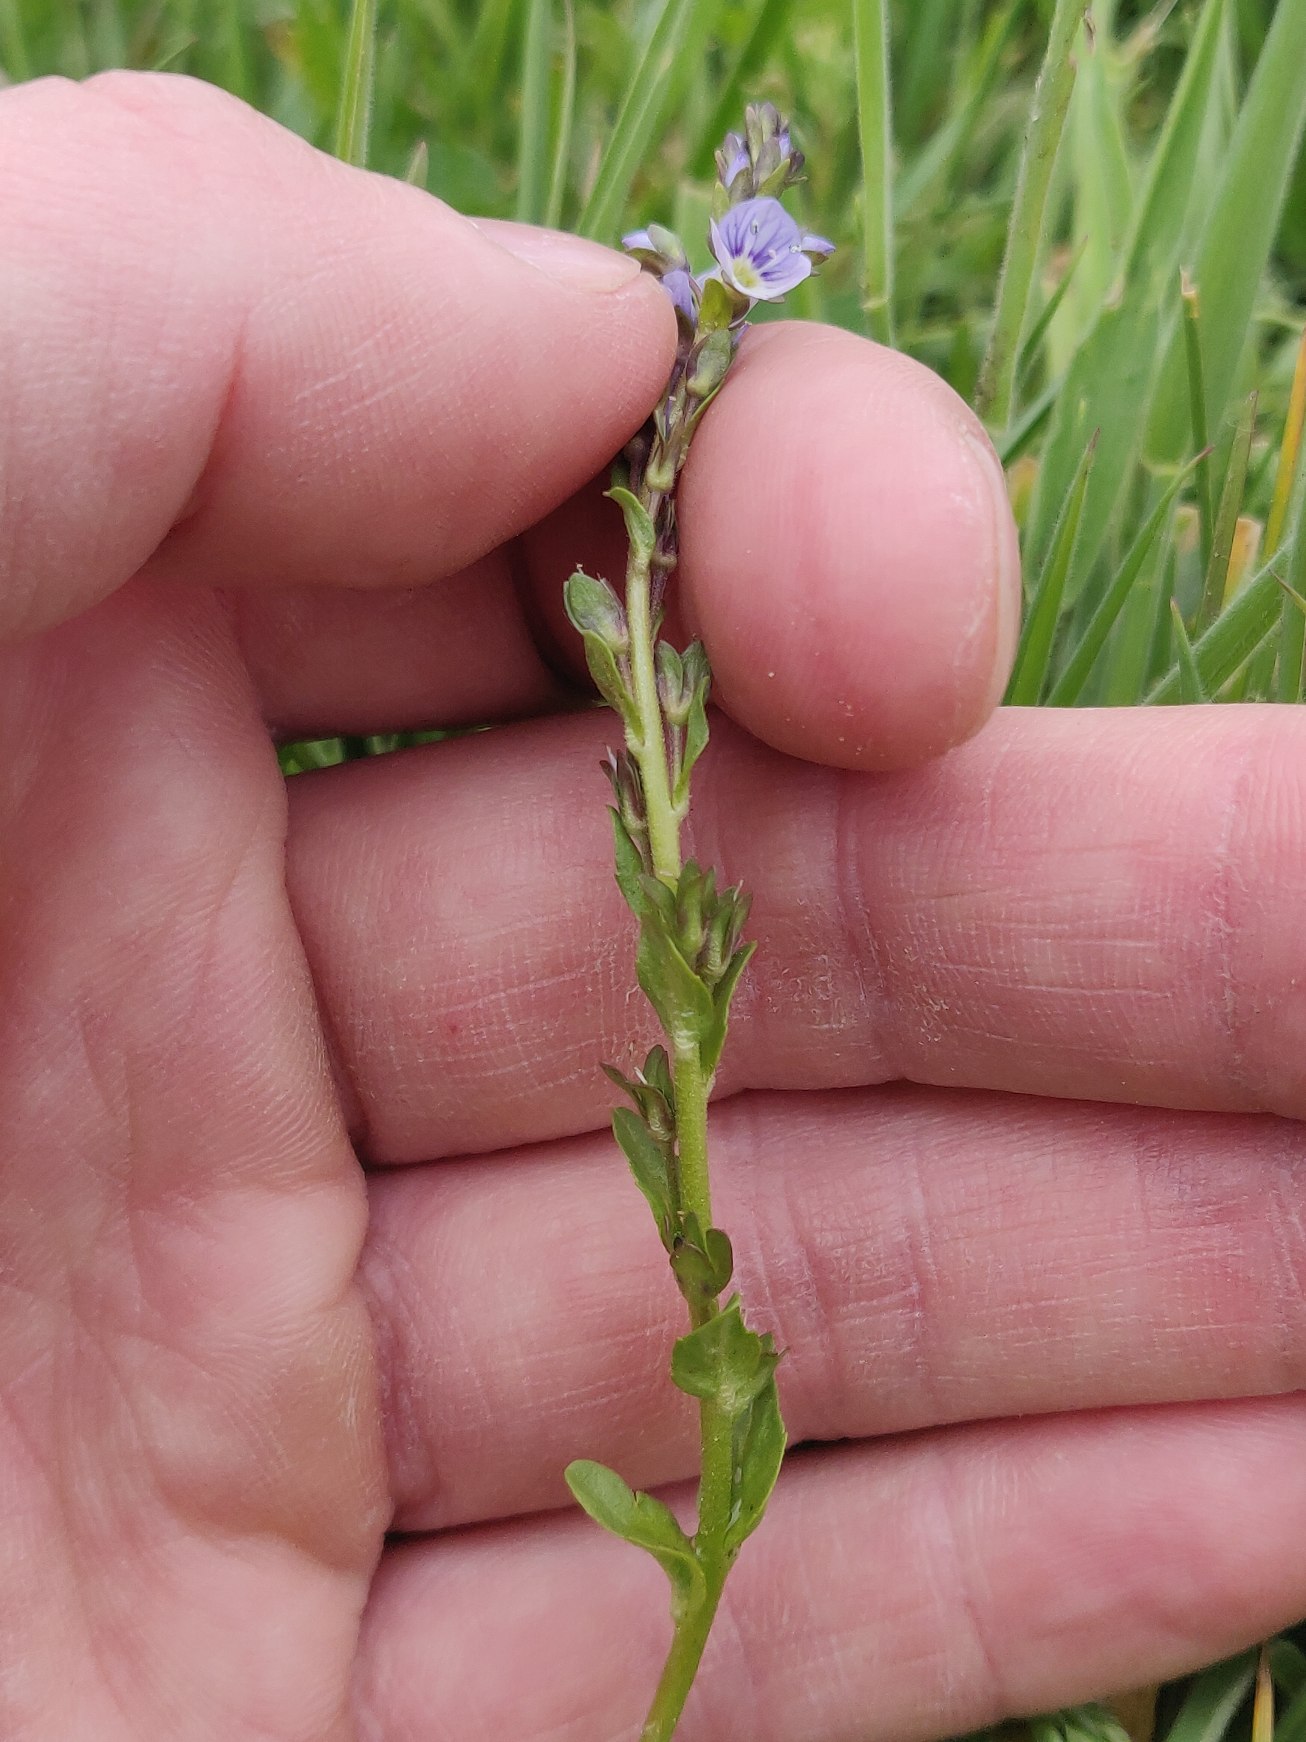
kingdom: Plantae
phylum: Tracheophyta
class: Magnoliopsida
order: Lamiales
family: Plantaginaceae
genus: Veronica
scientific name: Veronica serpyllifolia
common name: Glat ærenpris
